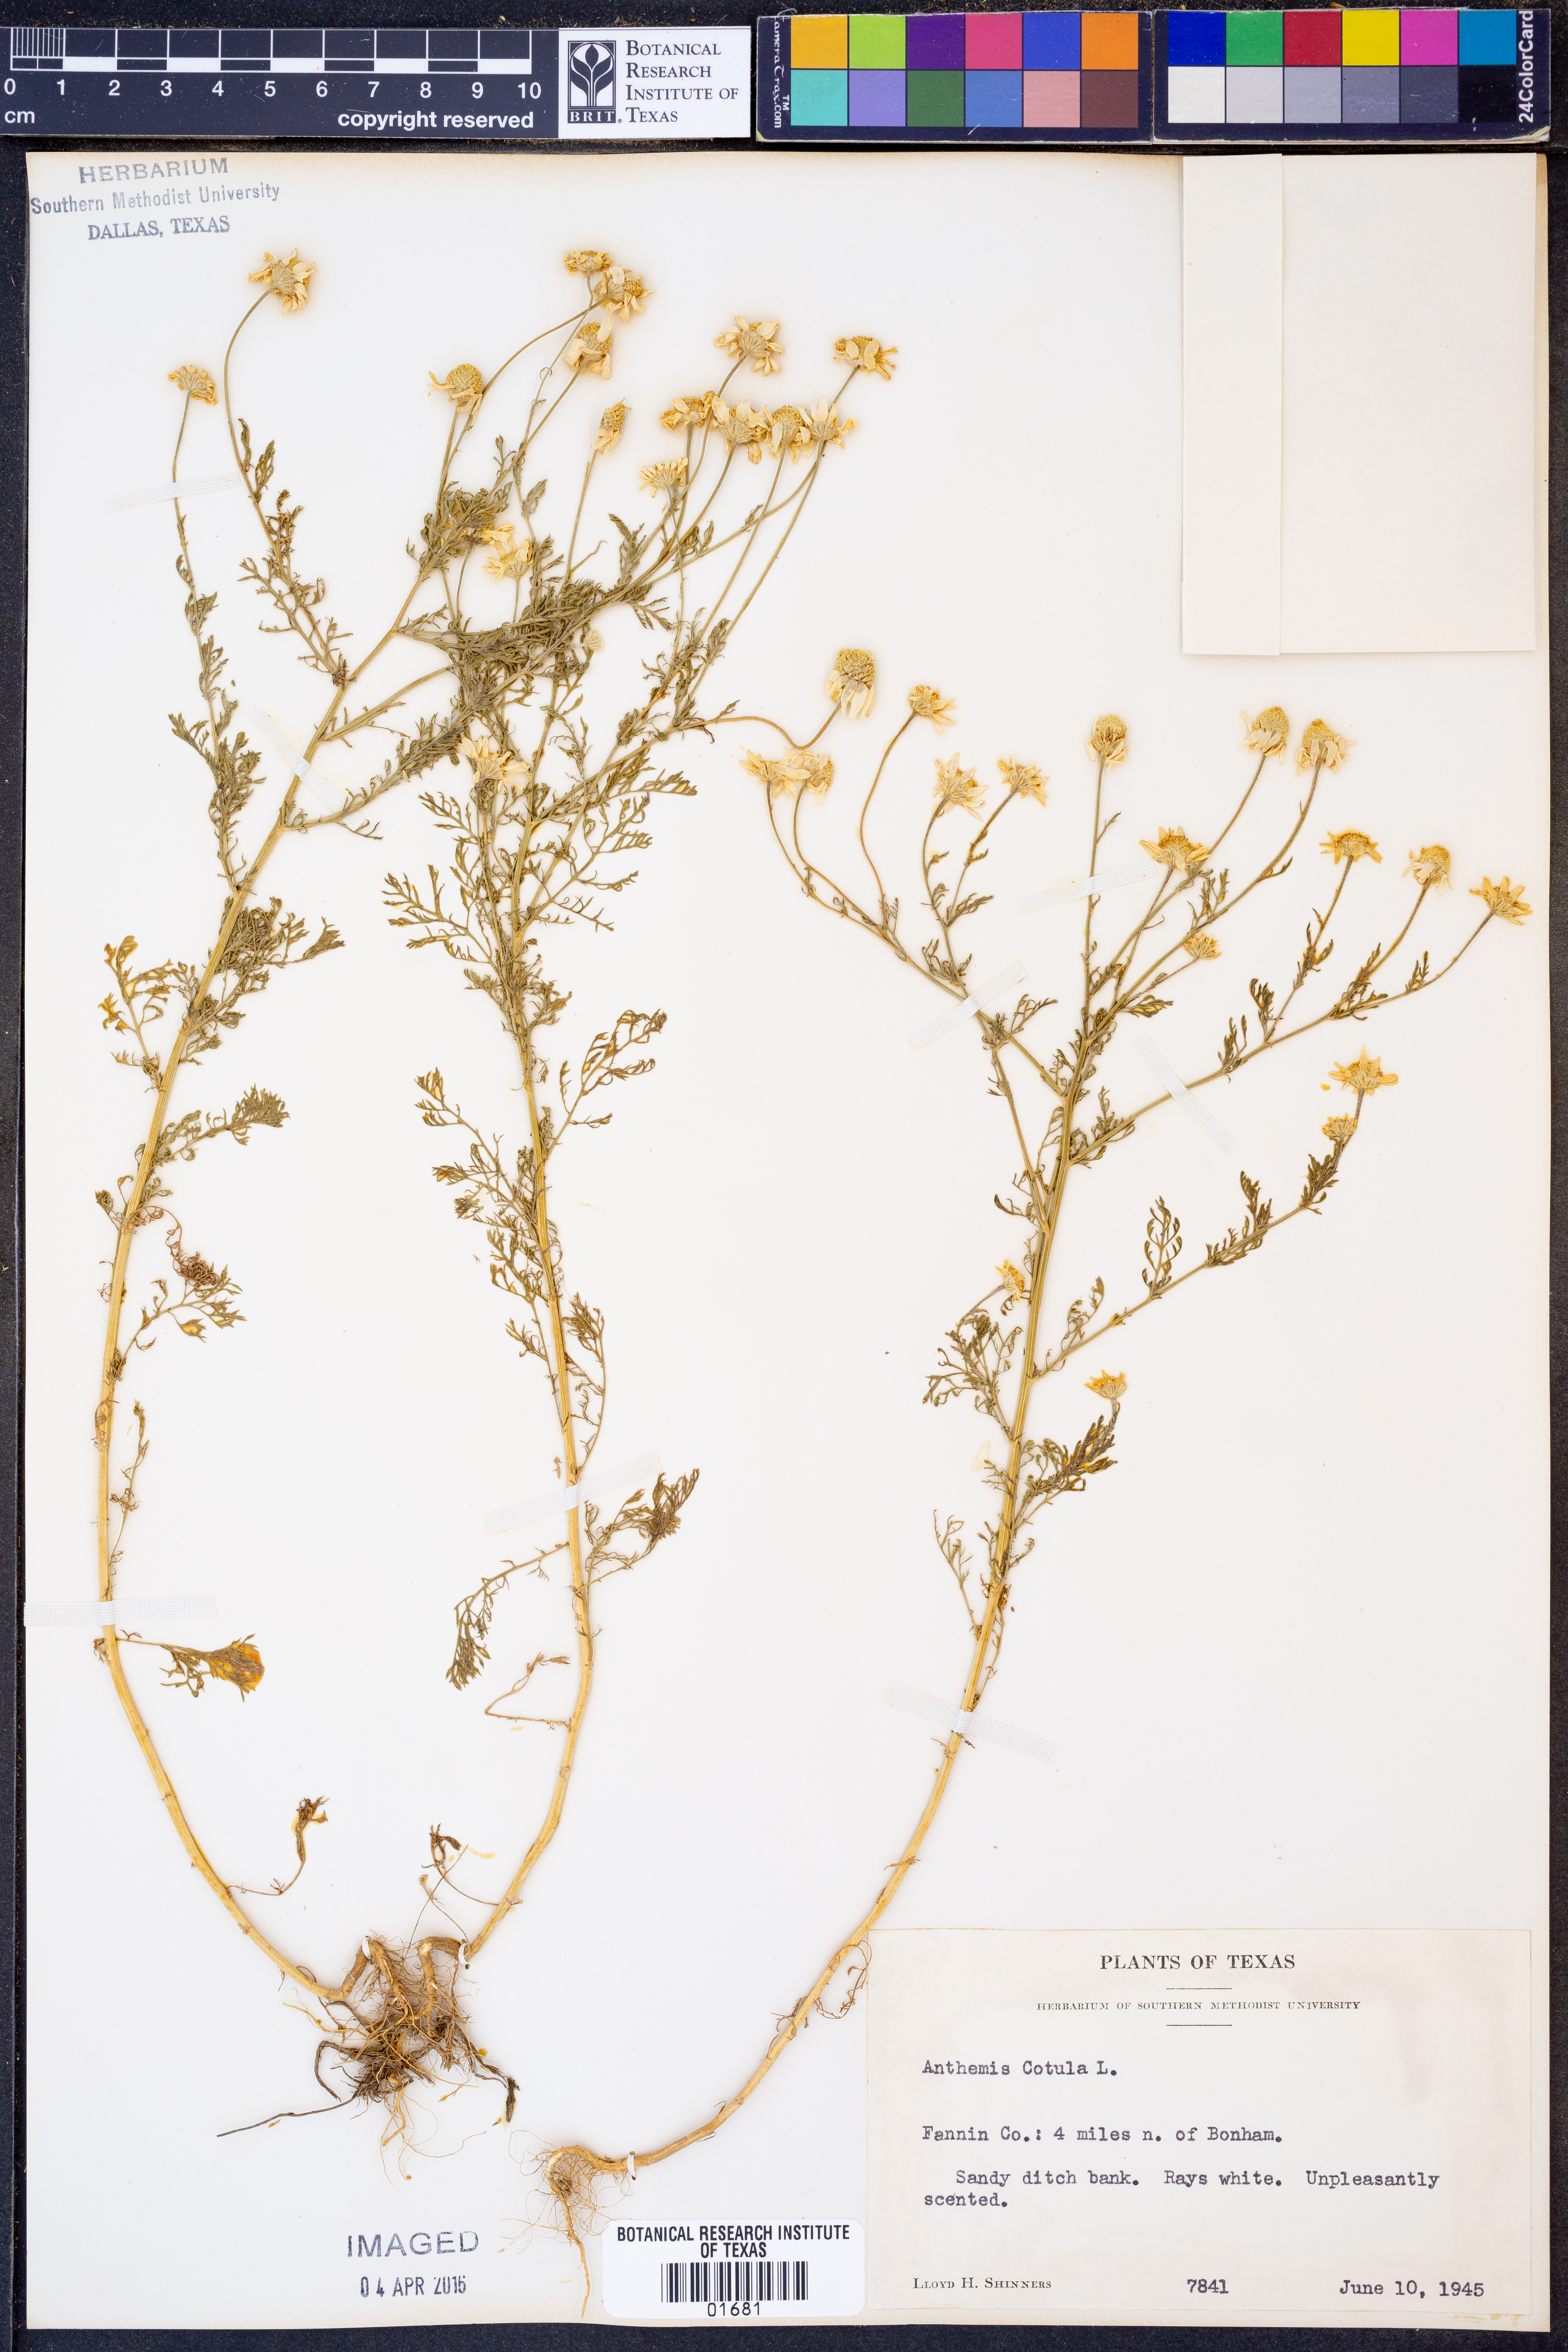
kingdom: Plantae
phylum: Tracheophyta
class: Magnoliopsida
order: Asterales
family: Asteraceae
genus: Anthemis
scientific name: Anthemis cotula
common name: Stinking chamomile
